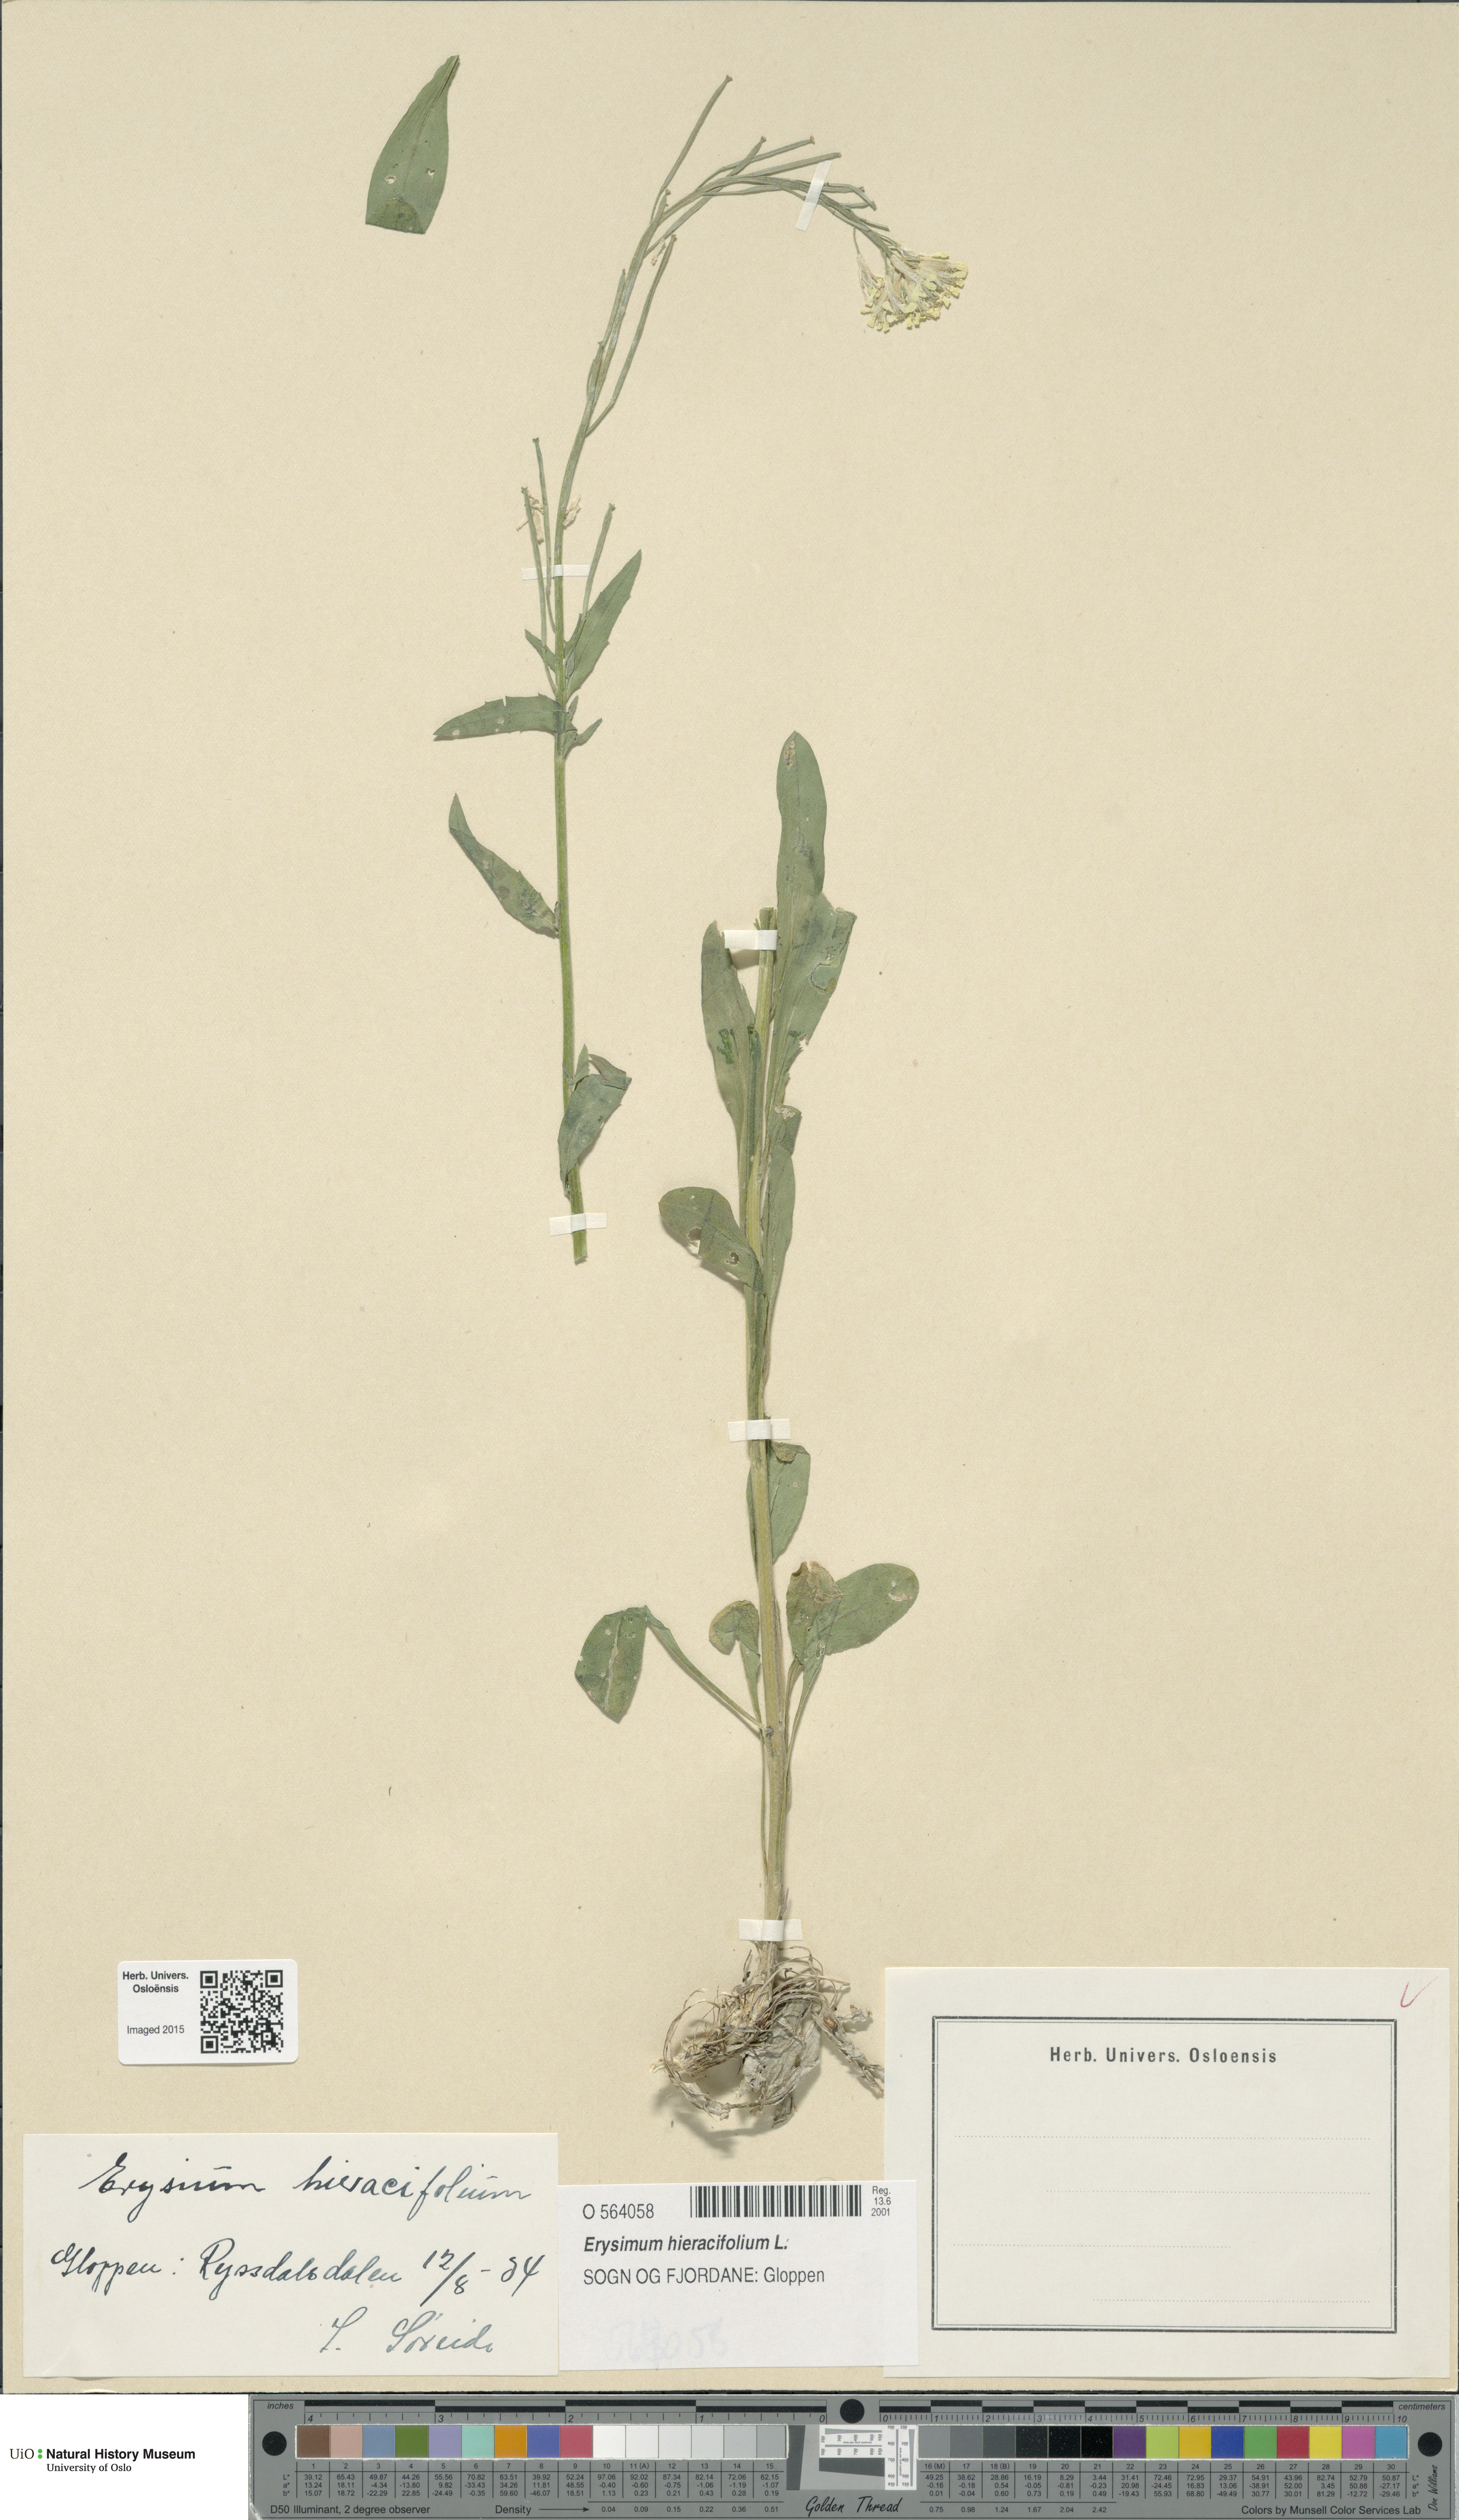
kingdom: Plantae
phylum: Tracheophyta
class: Magnoliopsida
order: Brassicales
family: Brassicaceae
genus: Erysimum
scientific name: Erysimum hieraciifolium
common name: European wallflower
